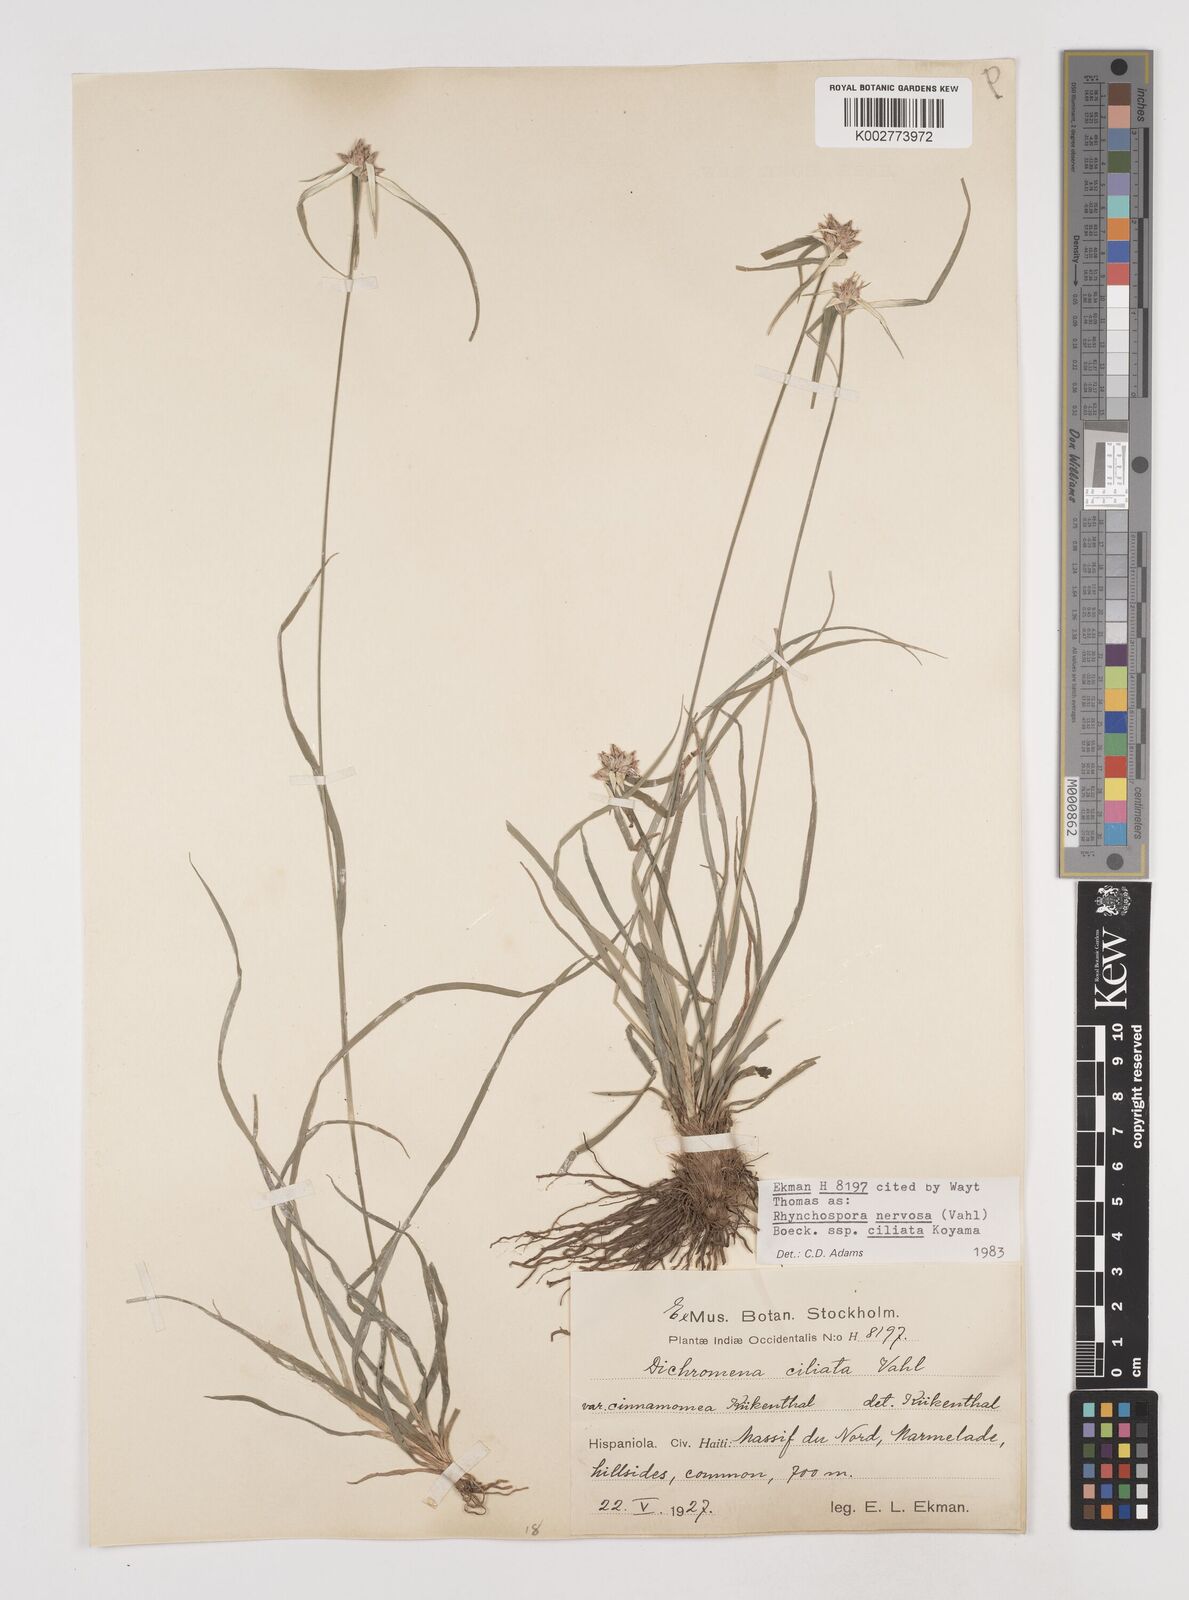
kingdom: Plantae
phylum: Tracheophyta
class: Liliopsida
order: Poales
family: Cyperaceae
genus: Rhynchospora
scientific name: Rhynchospora pura
